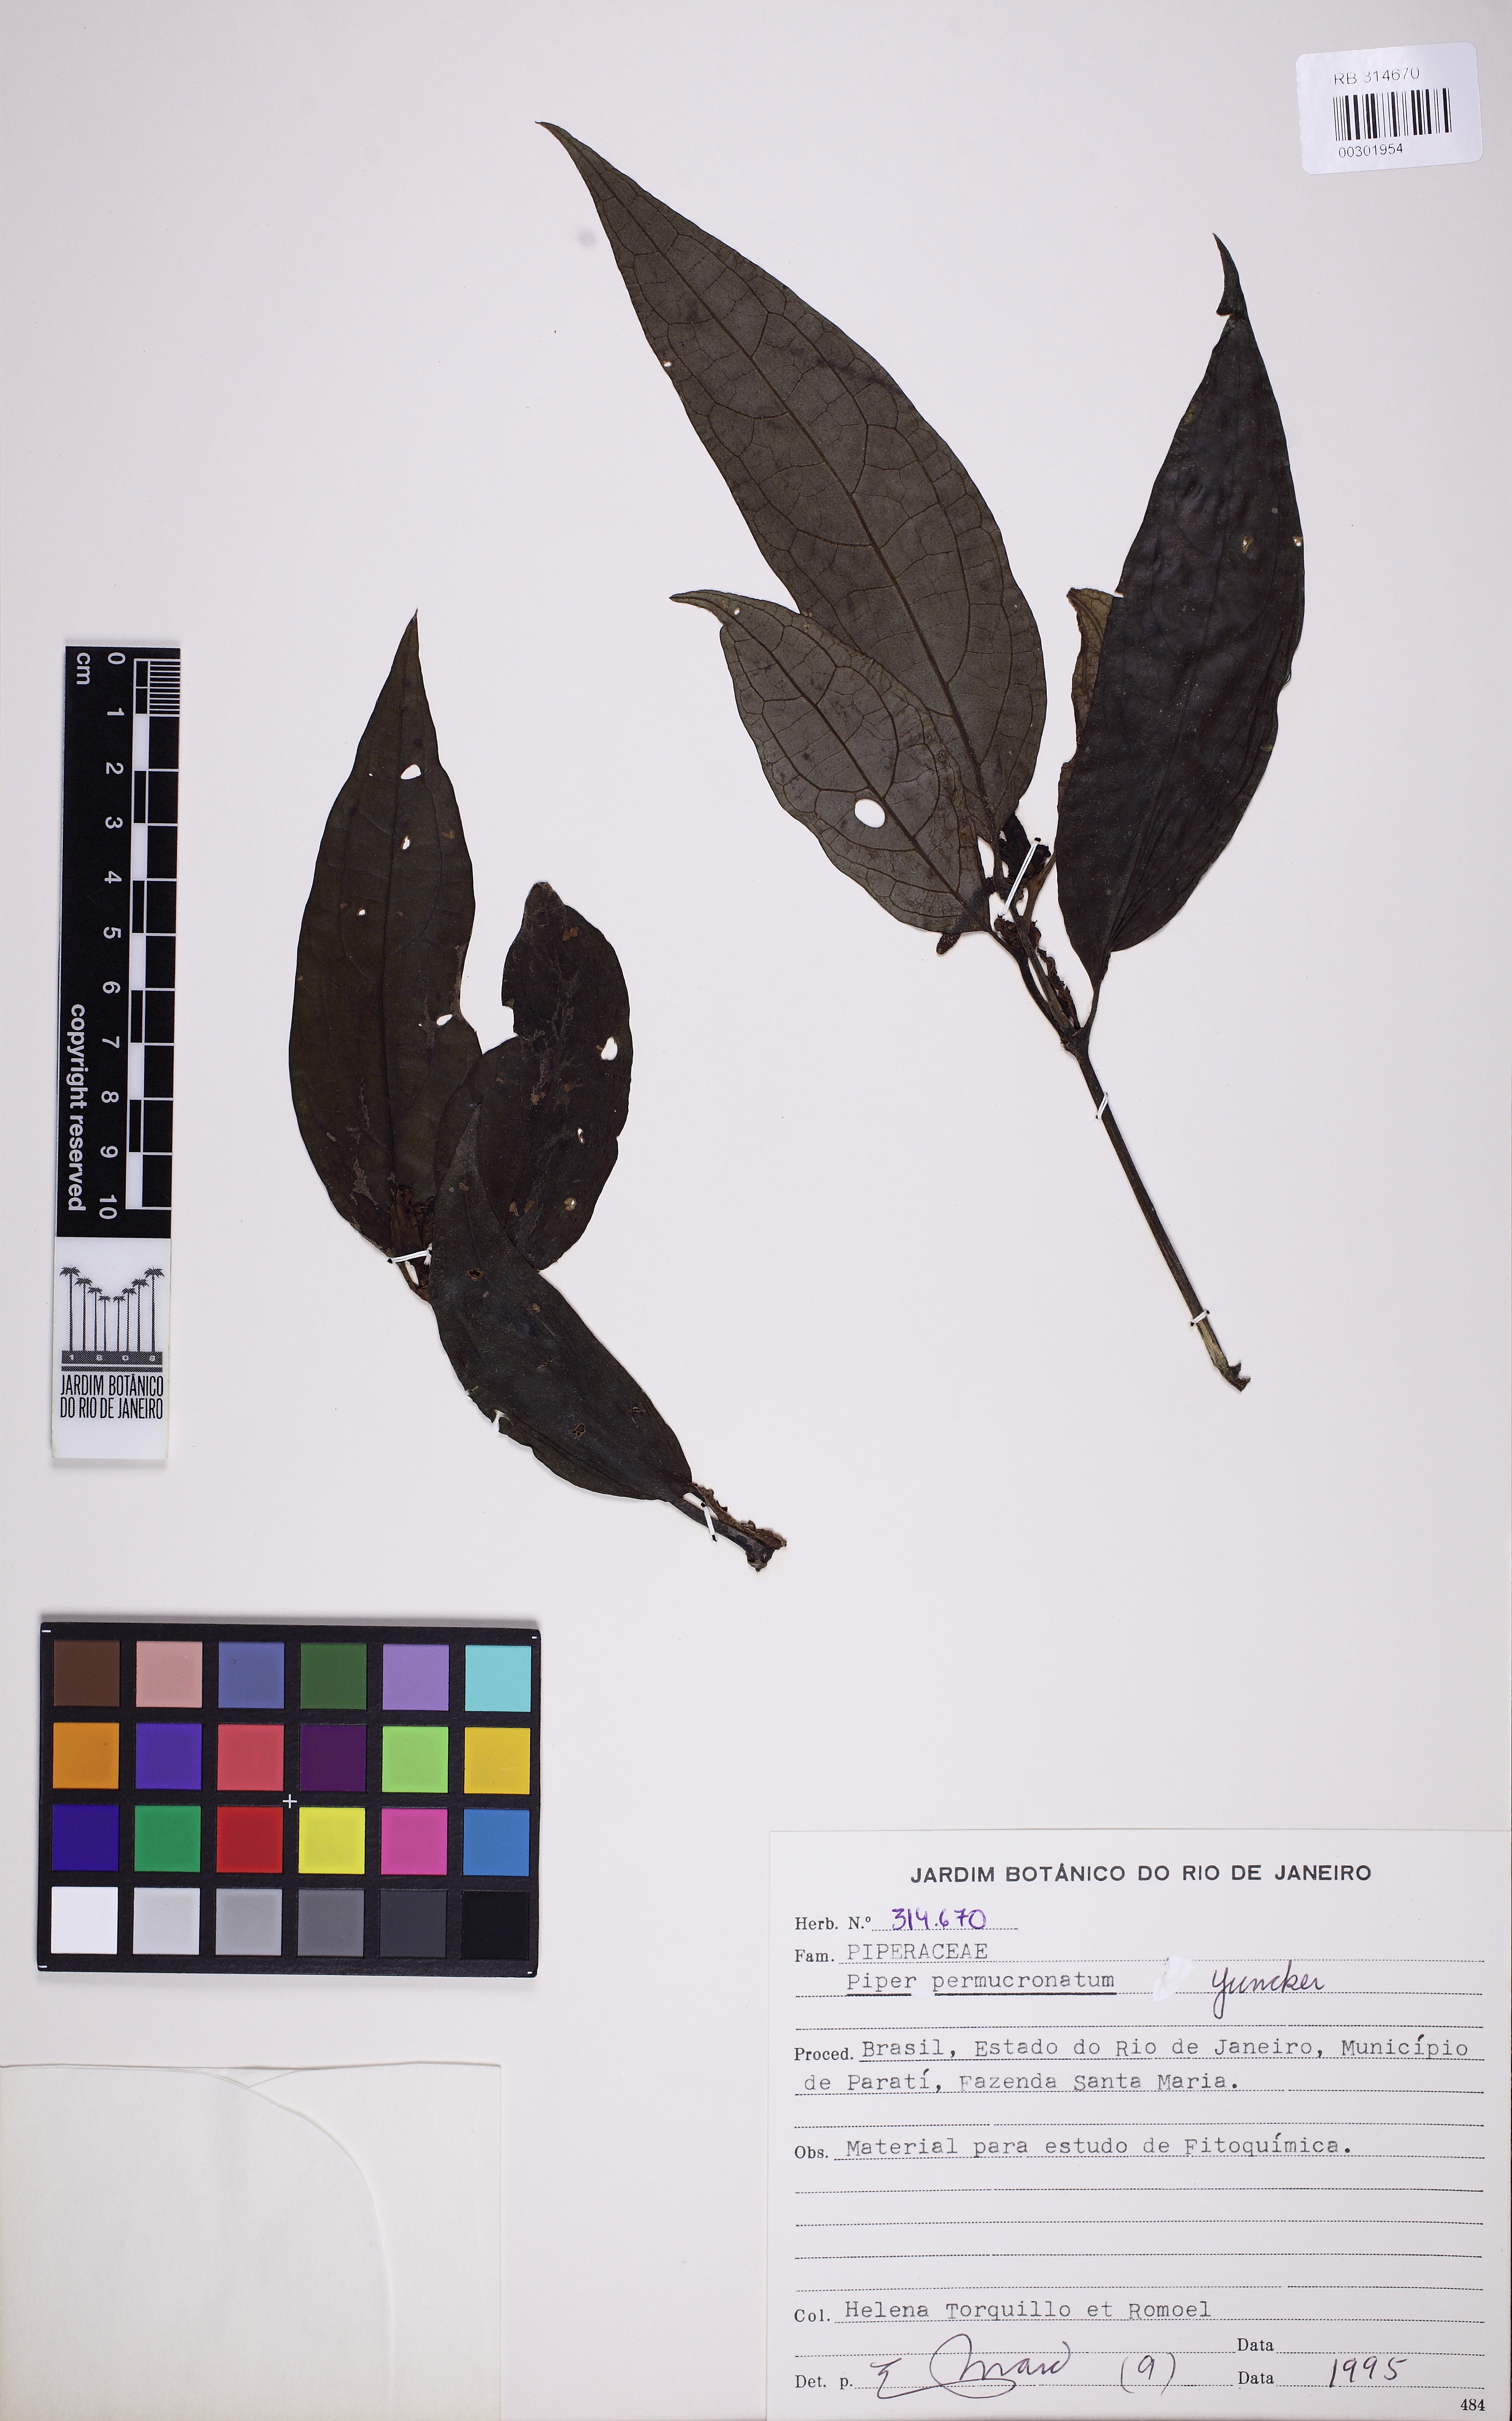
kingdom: Plantae
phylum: Tracheophyta
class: Magnoliopsida
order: Piperales
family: Piperaceae
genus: Piper
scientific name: Piper permucronatum
